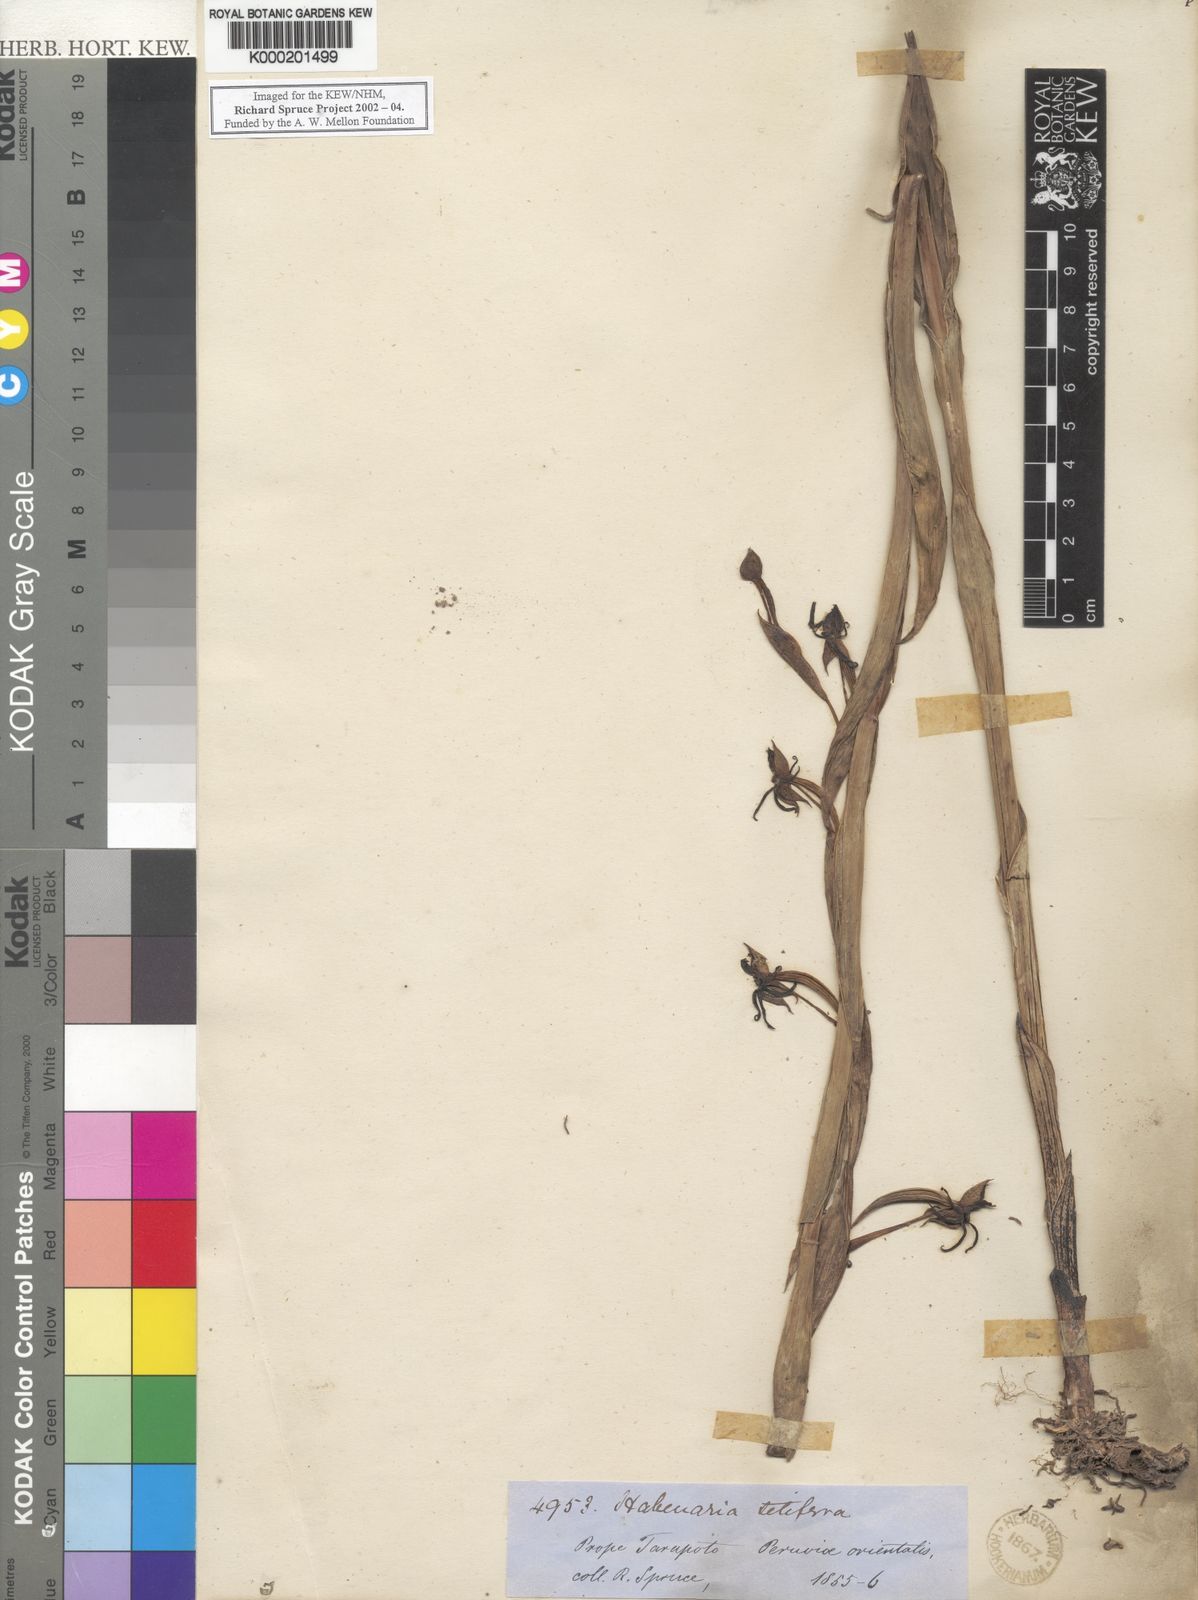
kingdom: Plantae
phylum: Tracheophyta
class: Liliopsida
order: Asparagales
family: Orchidaceae
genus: Habenaria
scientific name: Habenaria trifida
